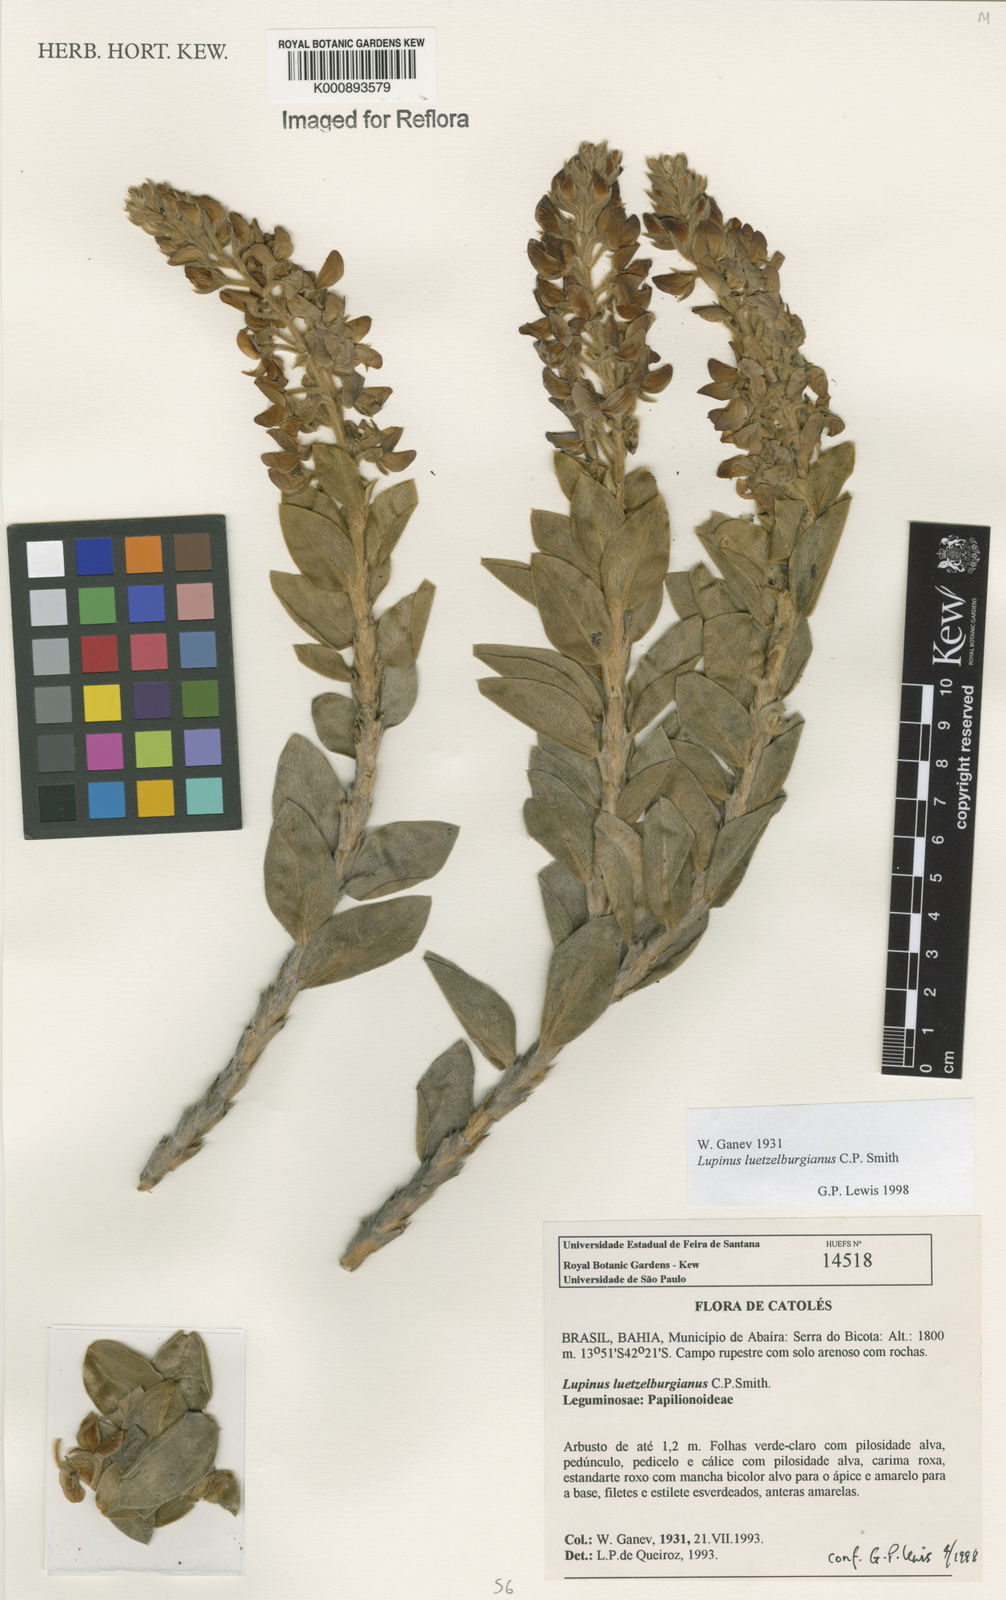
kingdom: Plantae
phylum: Tracheophyta
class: Magnoliopsida
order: Fabales
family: Fabaceae
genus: Lupinus
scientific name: Lupinus
